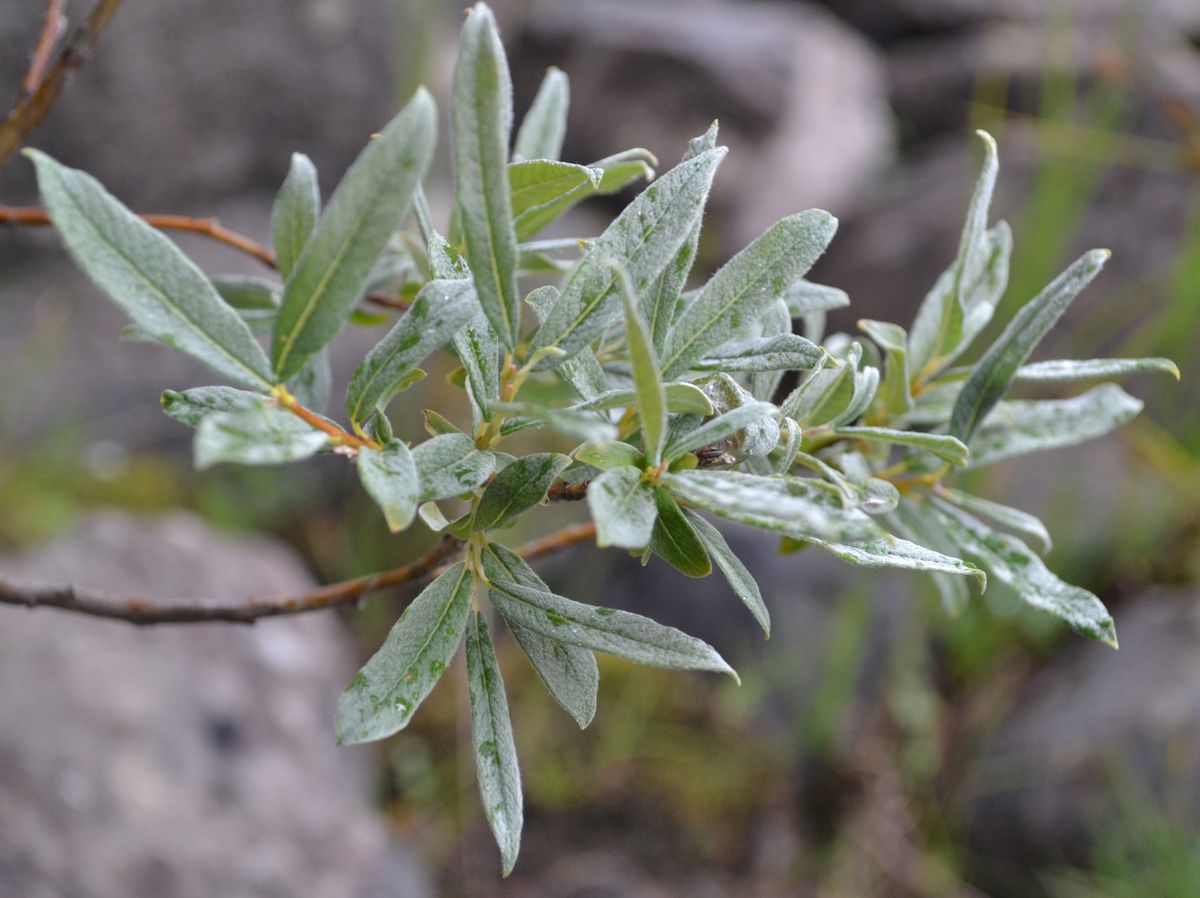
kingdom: Plantae
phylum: Tracheophyta
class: Magnoliopsida
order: Malpighiales
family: Salicaceae
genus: Salix
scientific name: Salix lapponum
